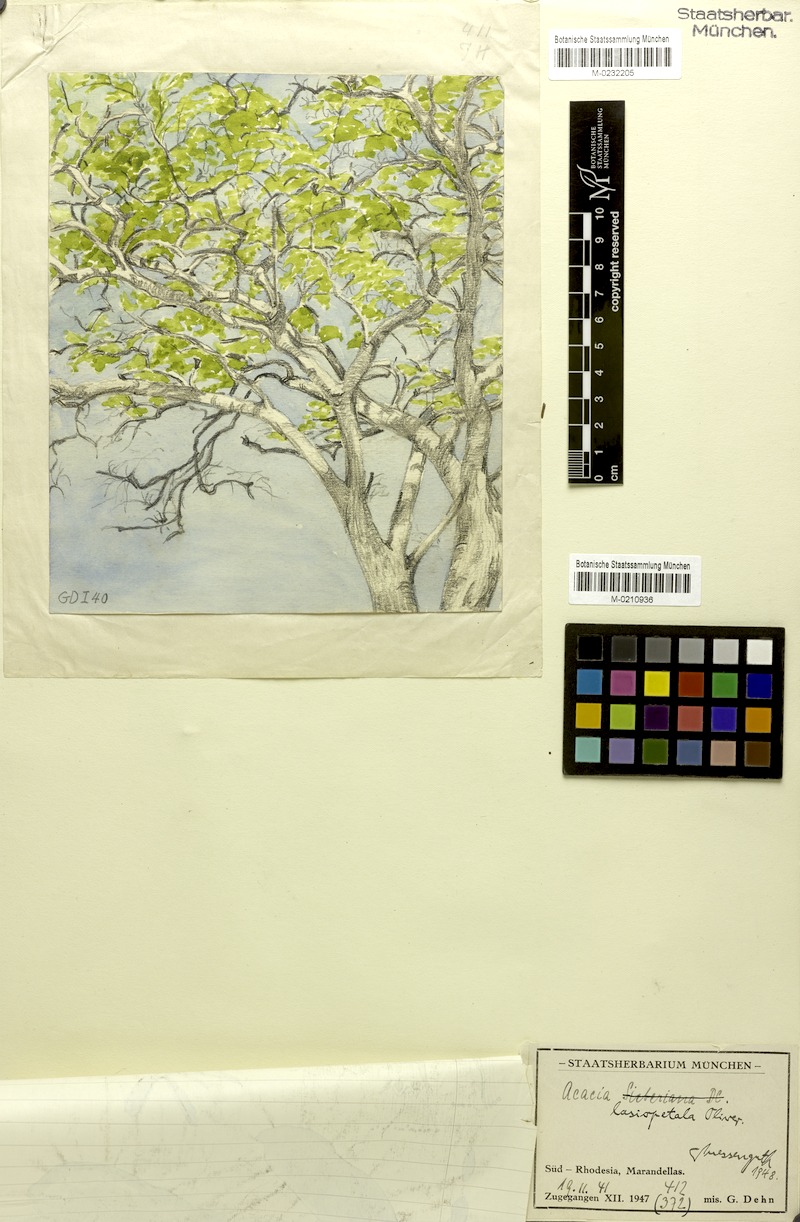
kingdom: Plantae
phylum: Tracheophyta
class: Magnoliopsida
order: Fabales
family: Fabaceae
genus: Vachellia
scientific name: Vachellia lasiopetala
